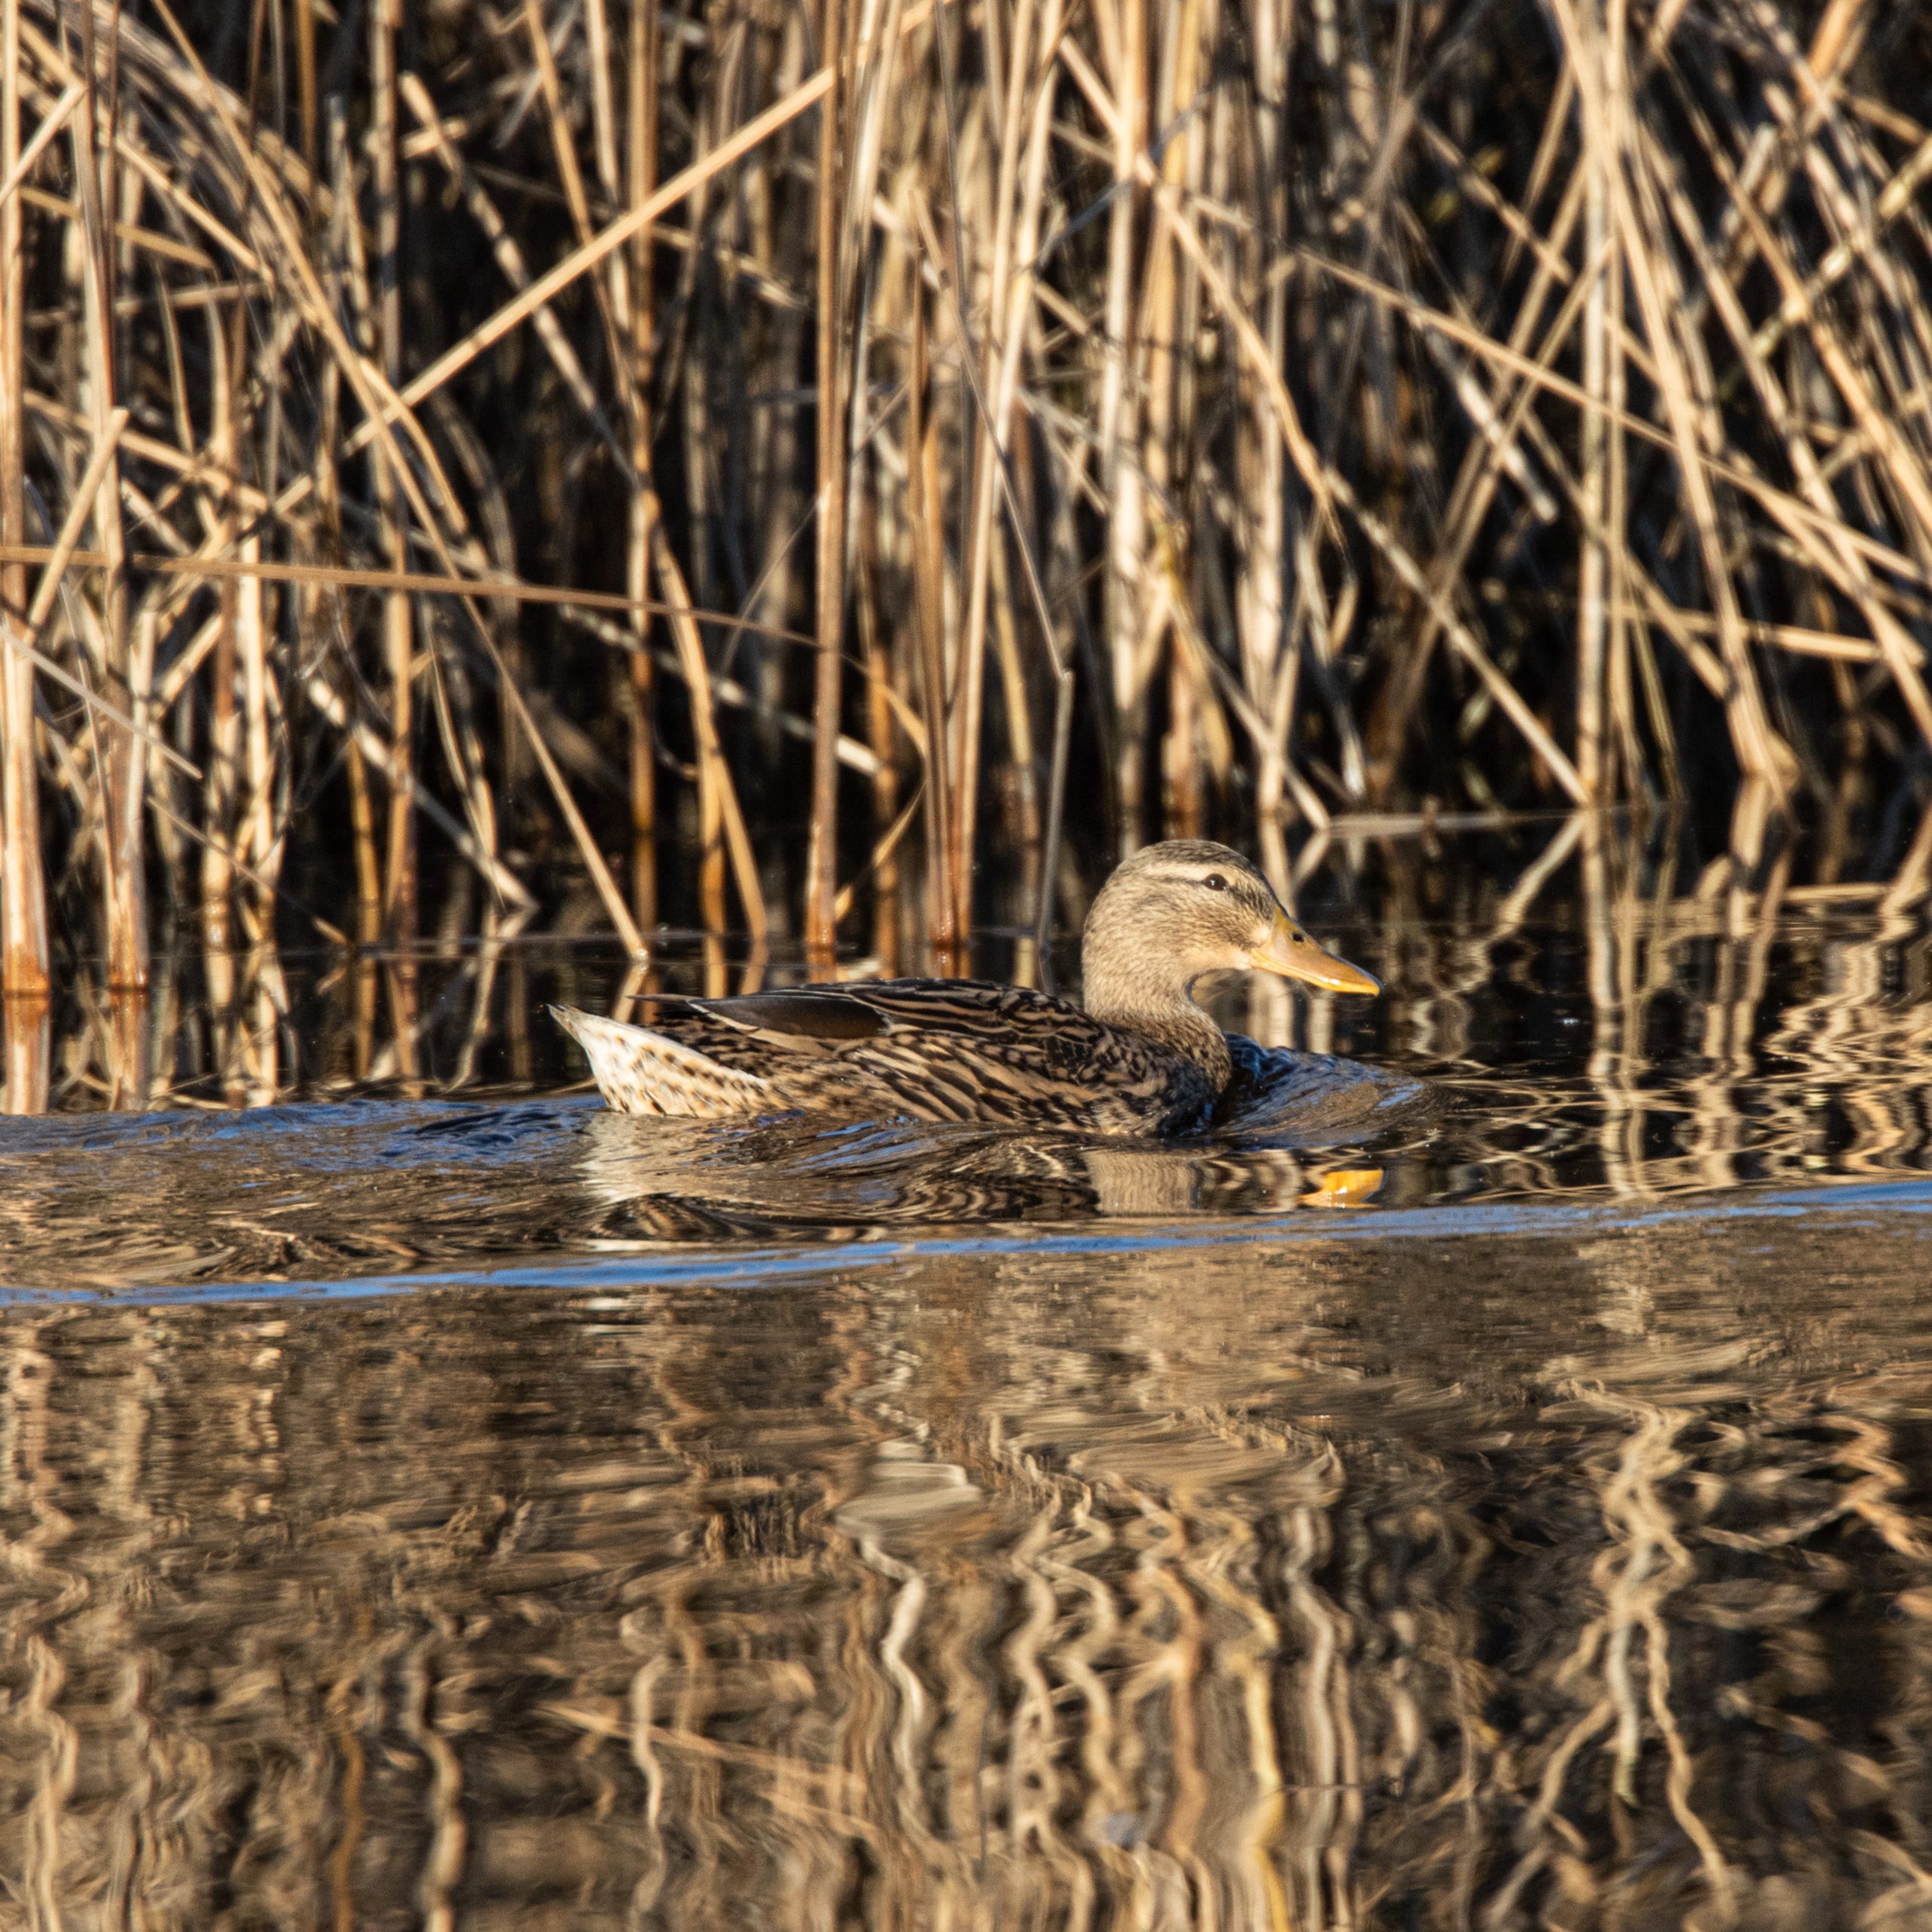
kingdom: Animalia
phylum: Chordata
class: Aves
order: Anseriformes
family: Anatidae
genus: Anas
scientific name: Anas platyrhynchos
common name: Gråand
